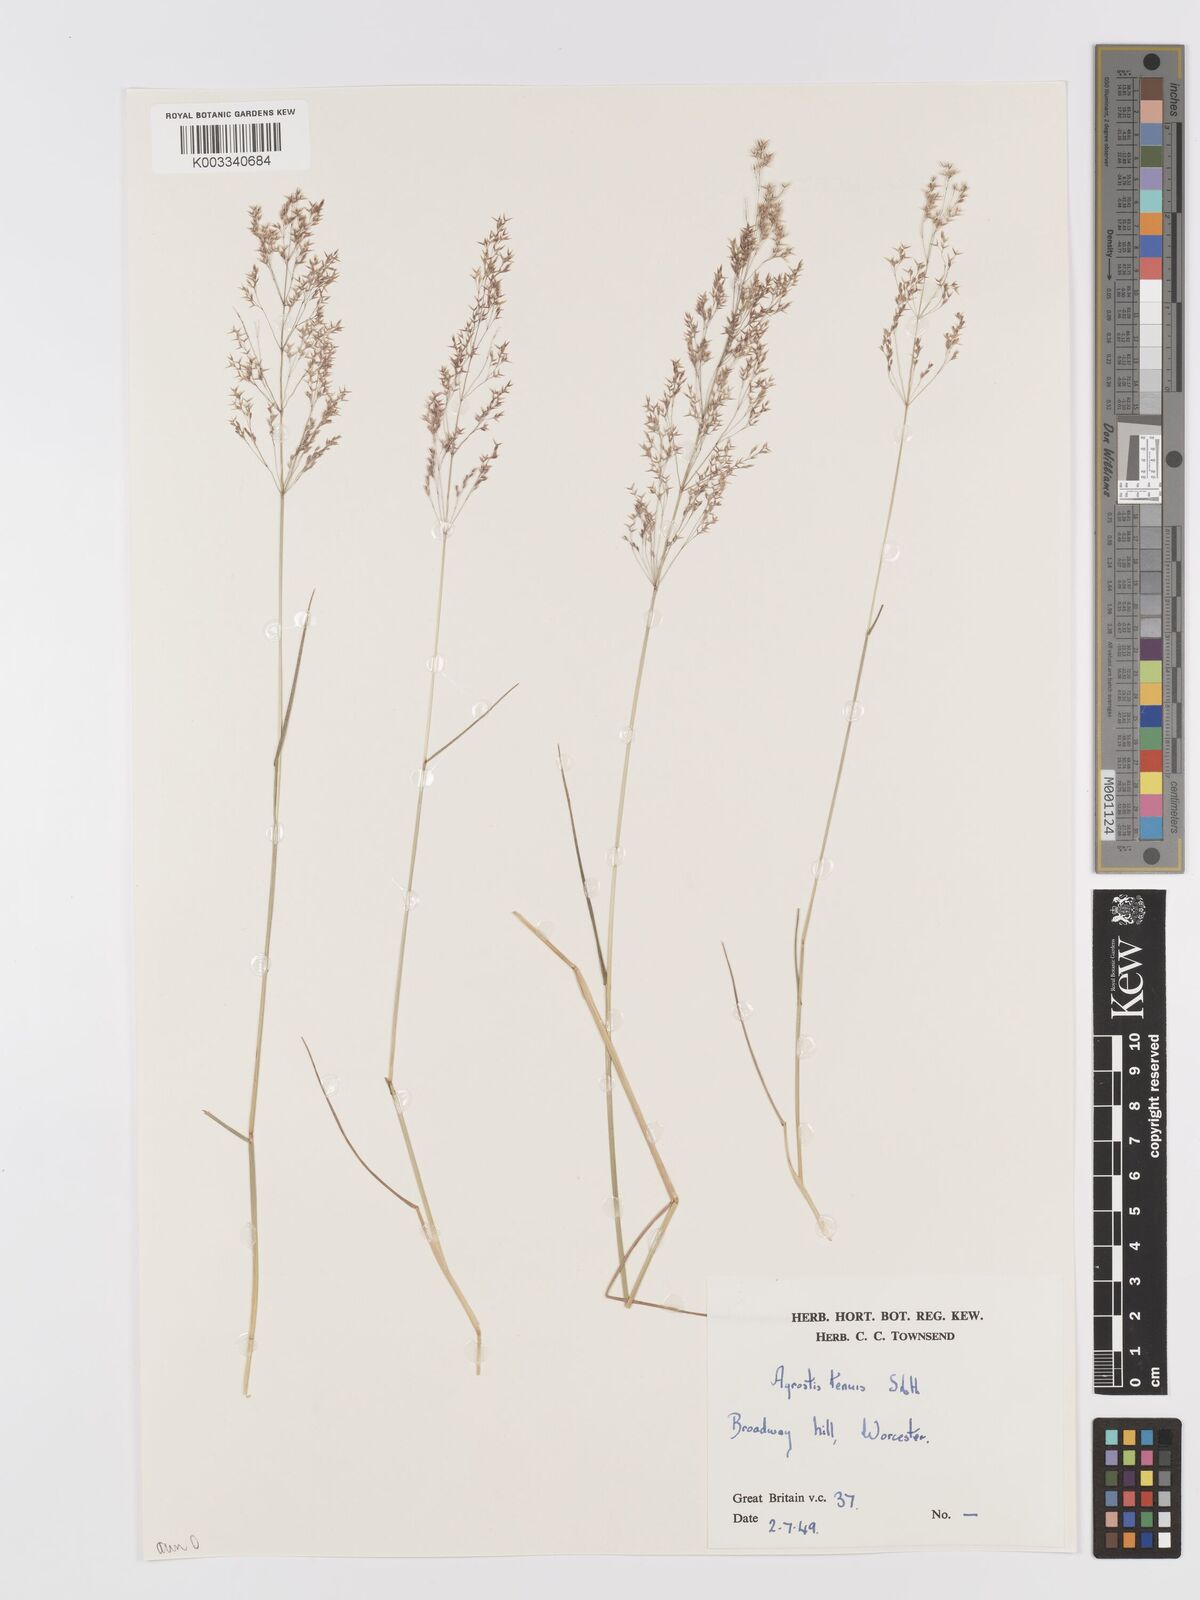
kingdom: Plantae
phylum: Tracheophyta
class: Liliopsida
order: Poales
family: Poaceae
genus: Agrostis
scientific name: Agrostis capillaris
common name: Colonial bentgrass
